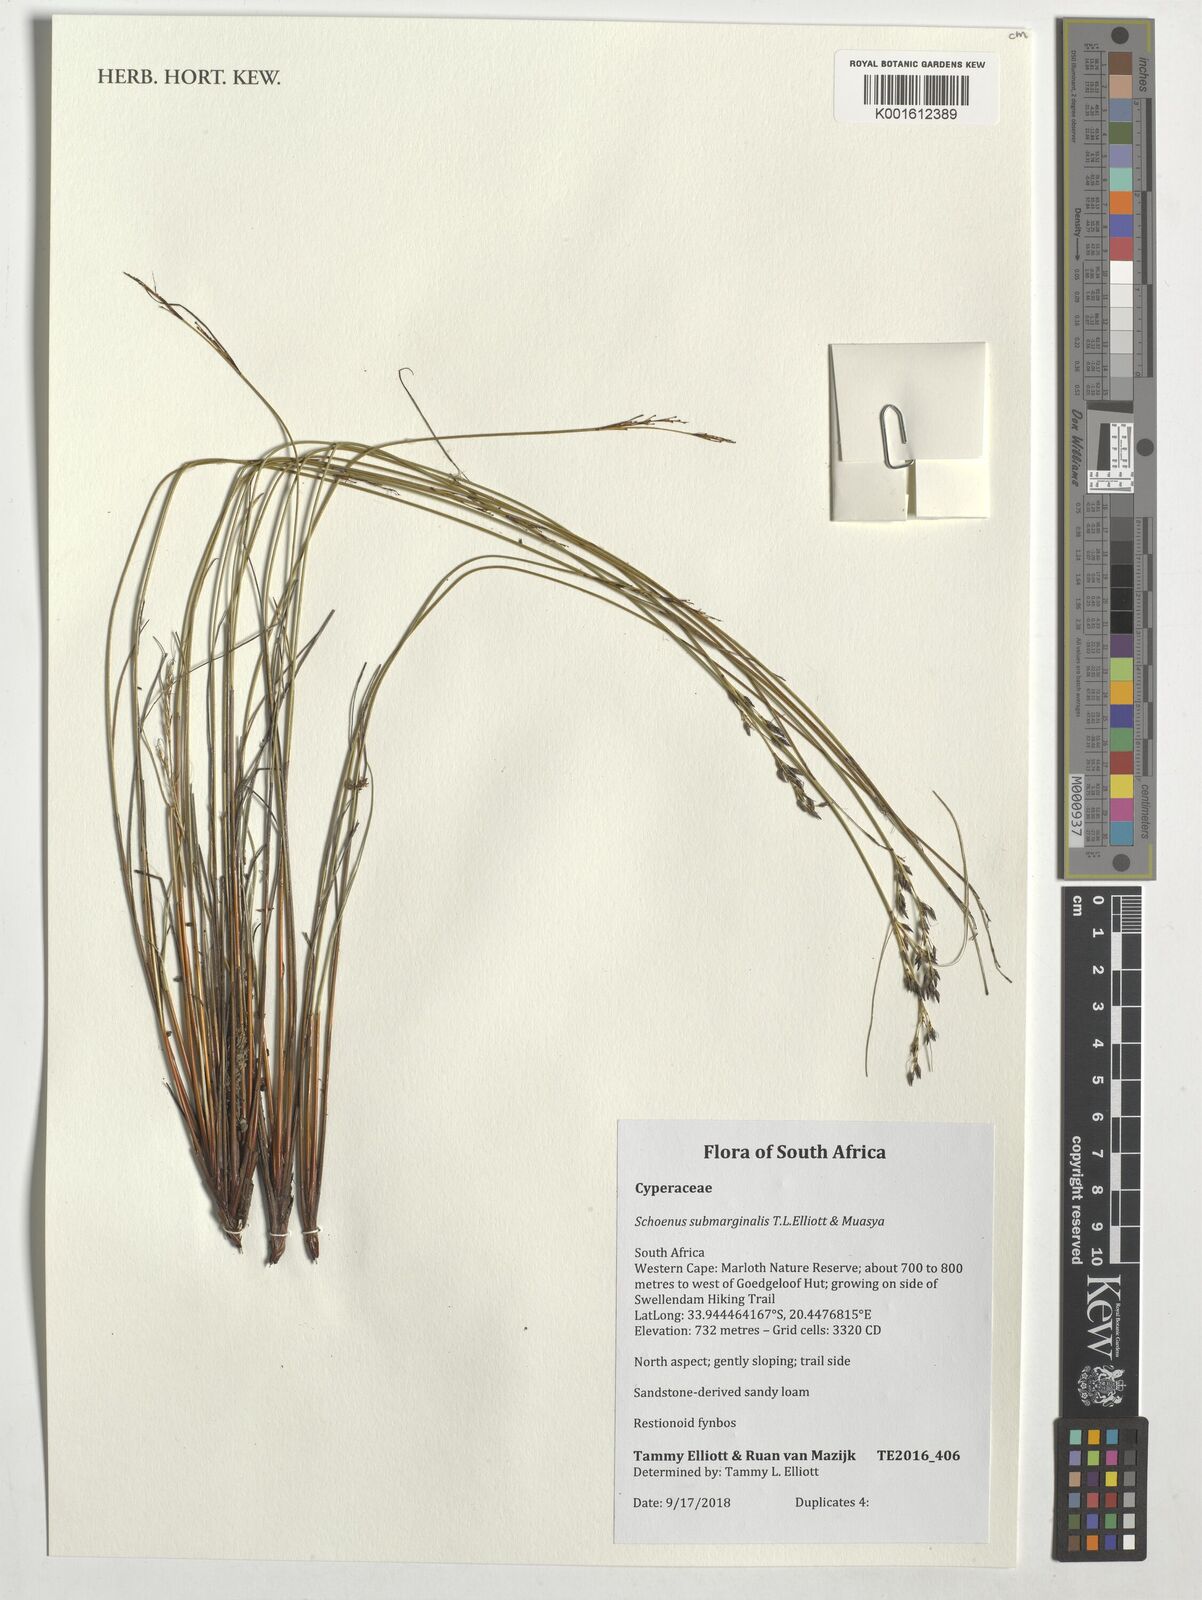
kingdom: Plantae
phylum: Tracheophyta
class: Liliopsida
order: Poales
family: Cyperaceae
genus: Schoenus
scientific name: Schoenus submarginalis
